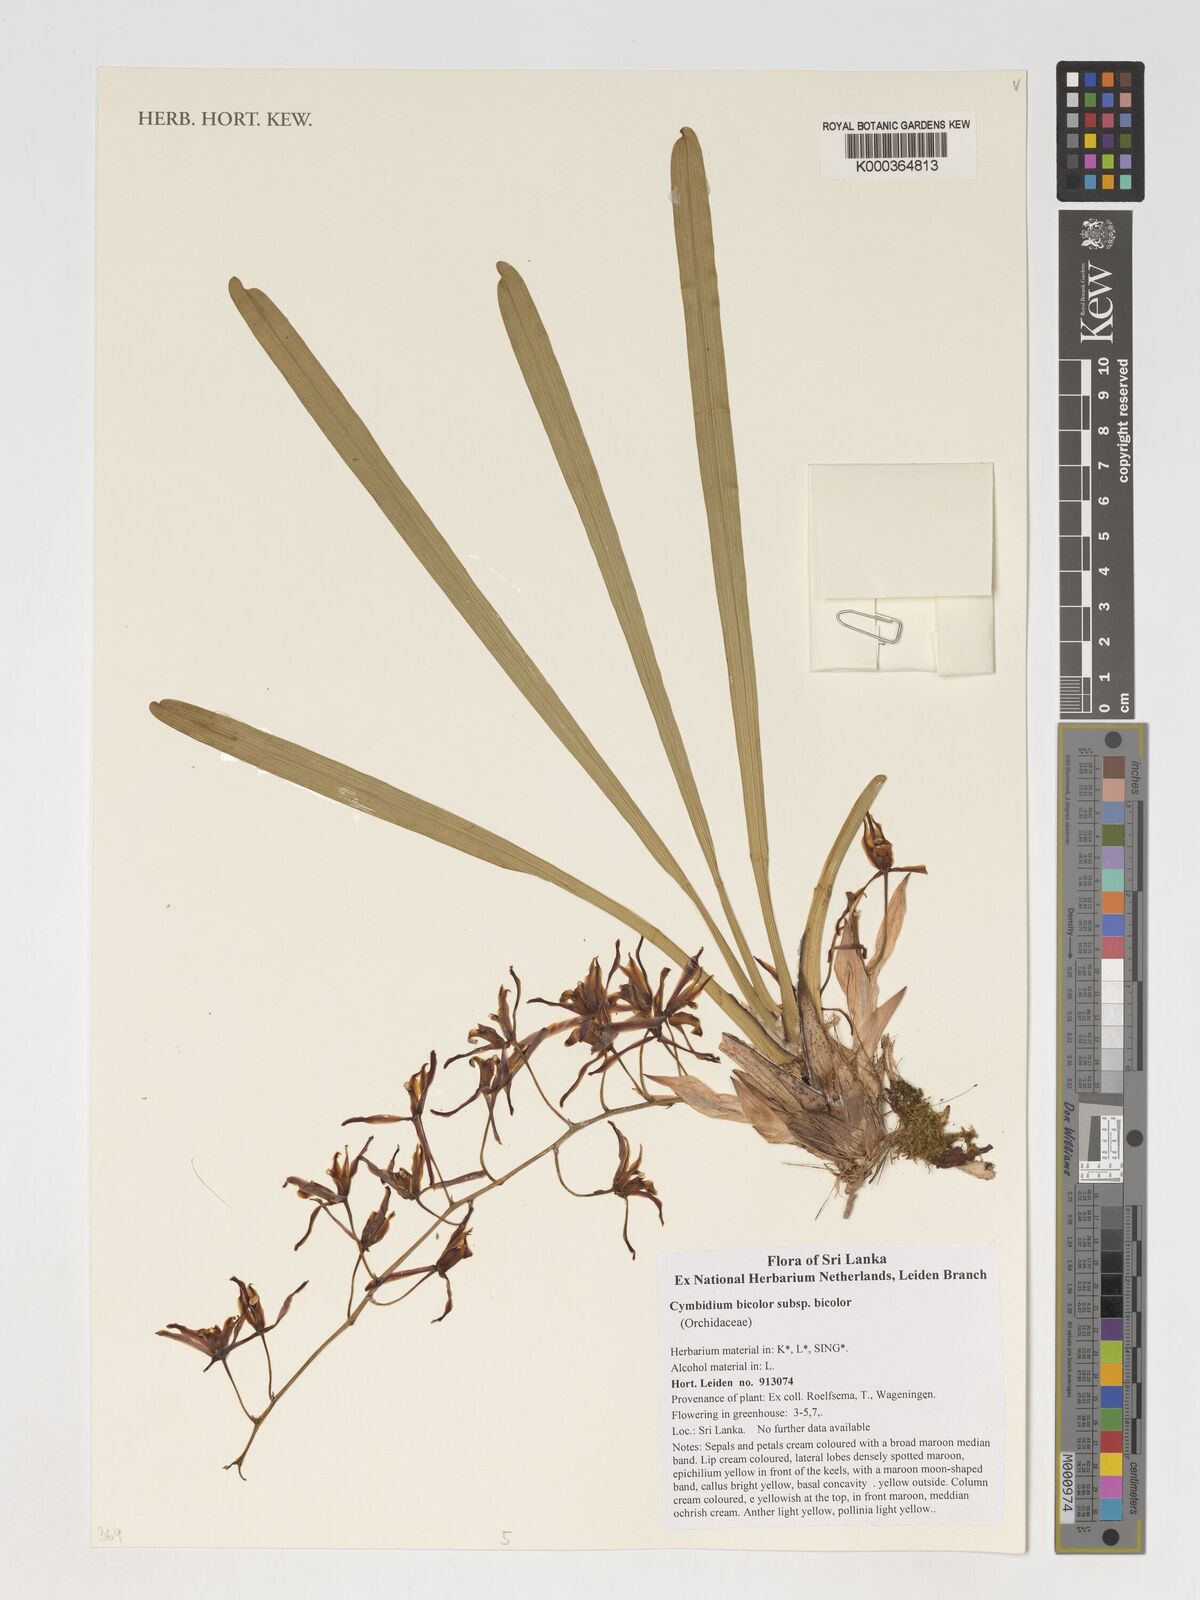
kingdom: Plantae
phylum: Tracheophyta
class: Liliopsida
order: Asparagales
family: Orchidaceae
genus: Cymbidium
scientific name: Cymbidium bicolor
